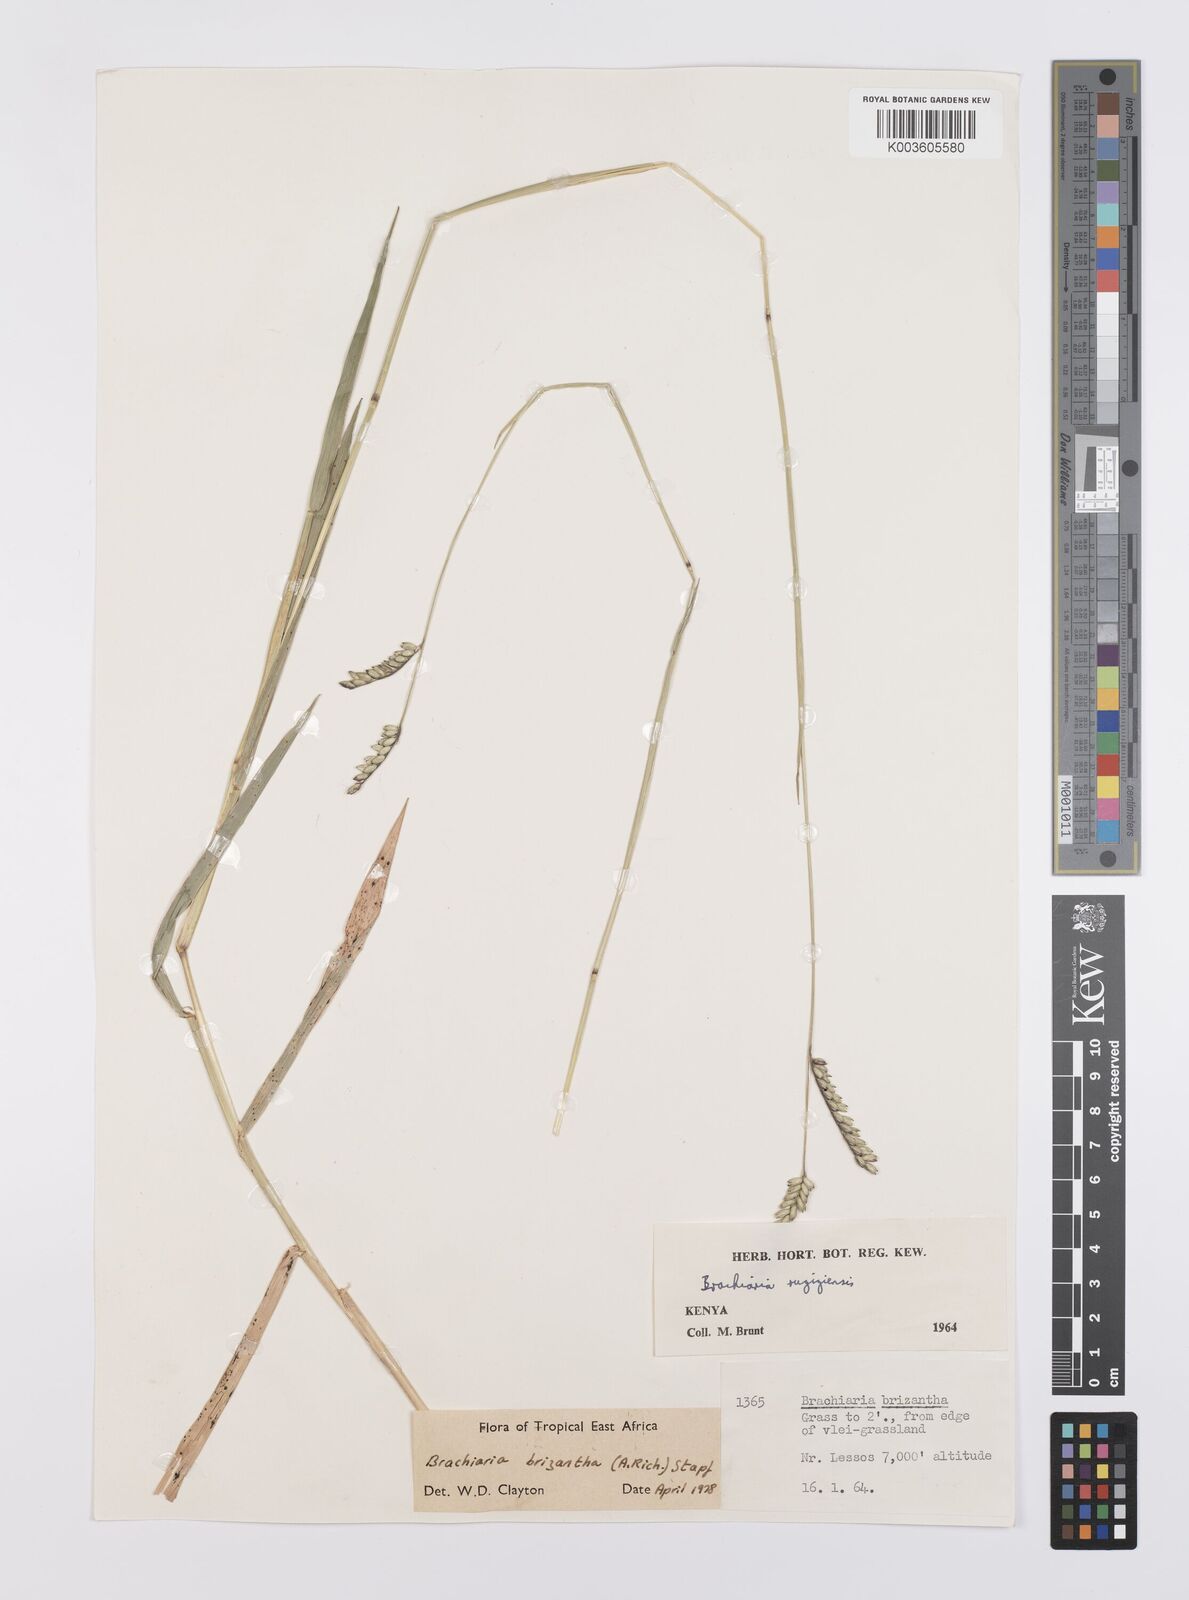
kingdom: Plantae
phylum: Tracheophyta
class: Liliopsida
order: Poales
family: Poaceae
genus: Urochloa
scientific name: Urochloa brizantha
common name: Palisade signalgrass
